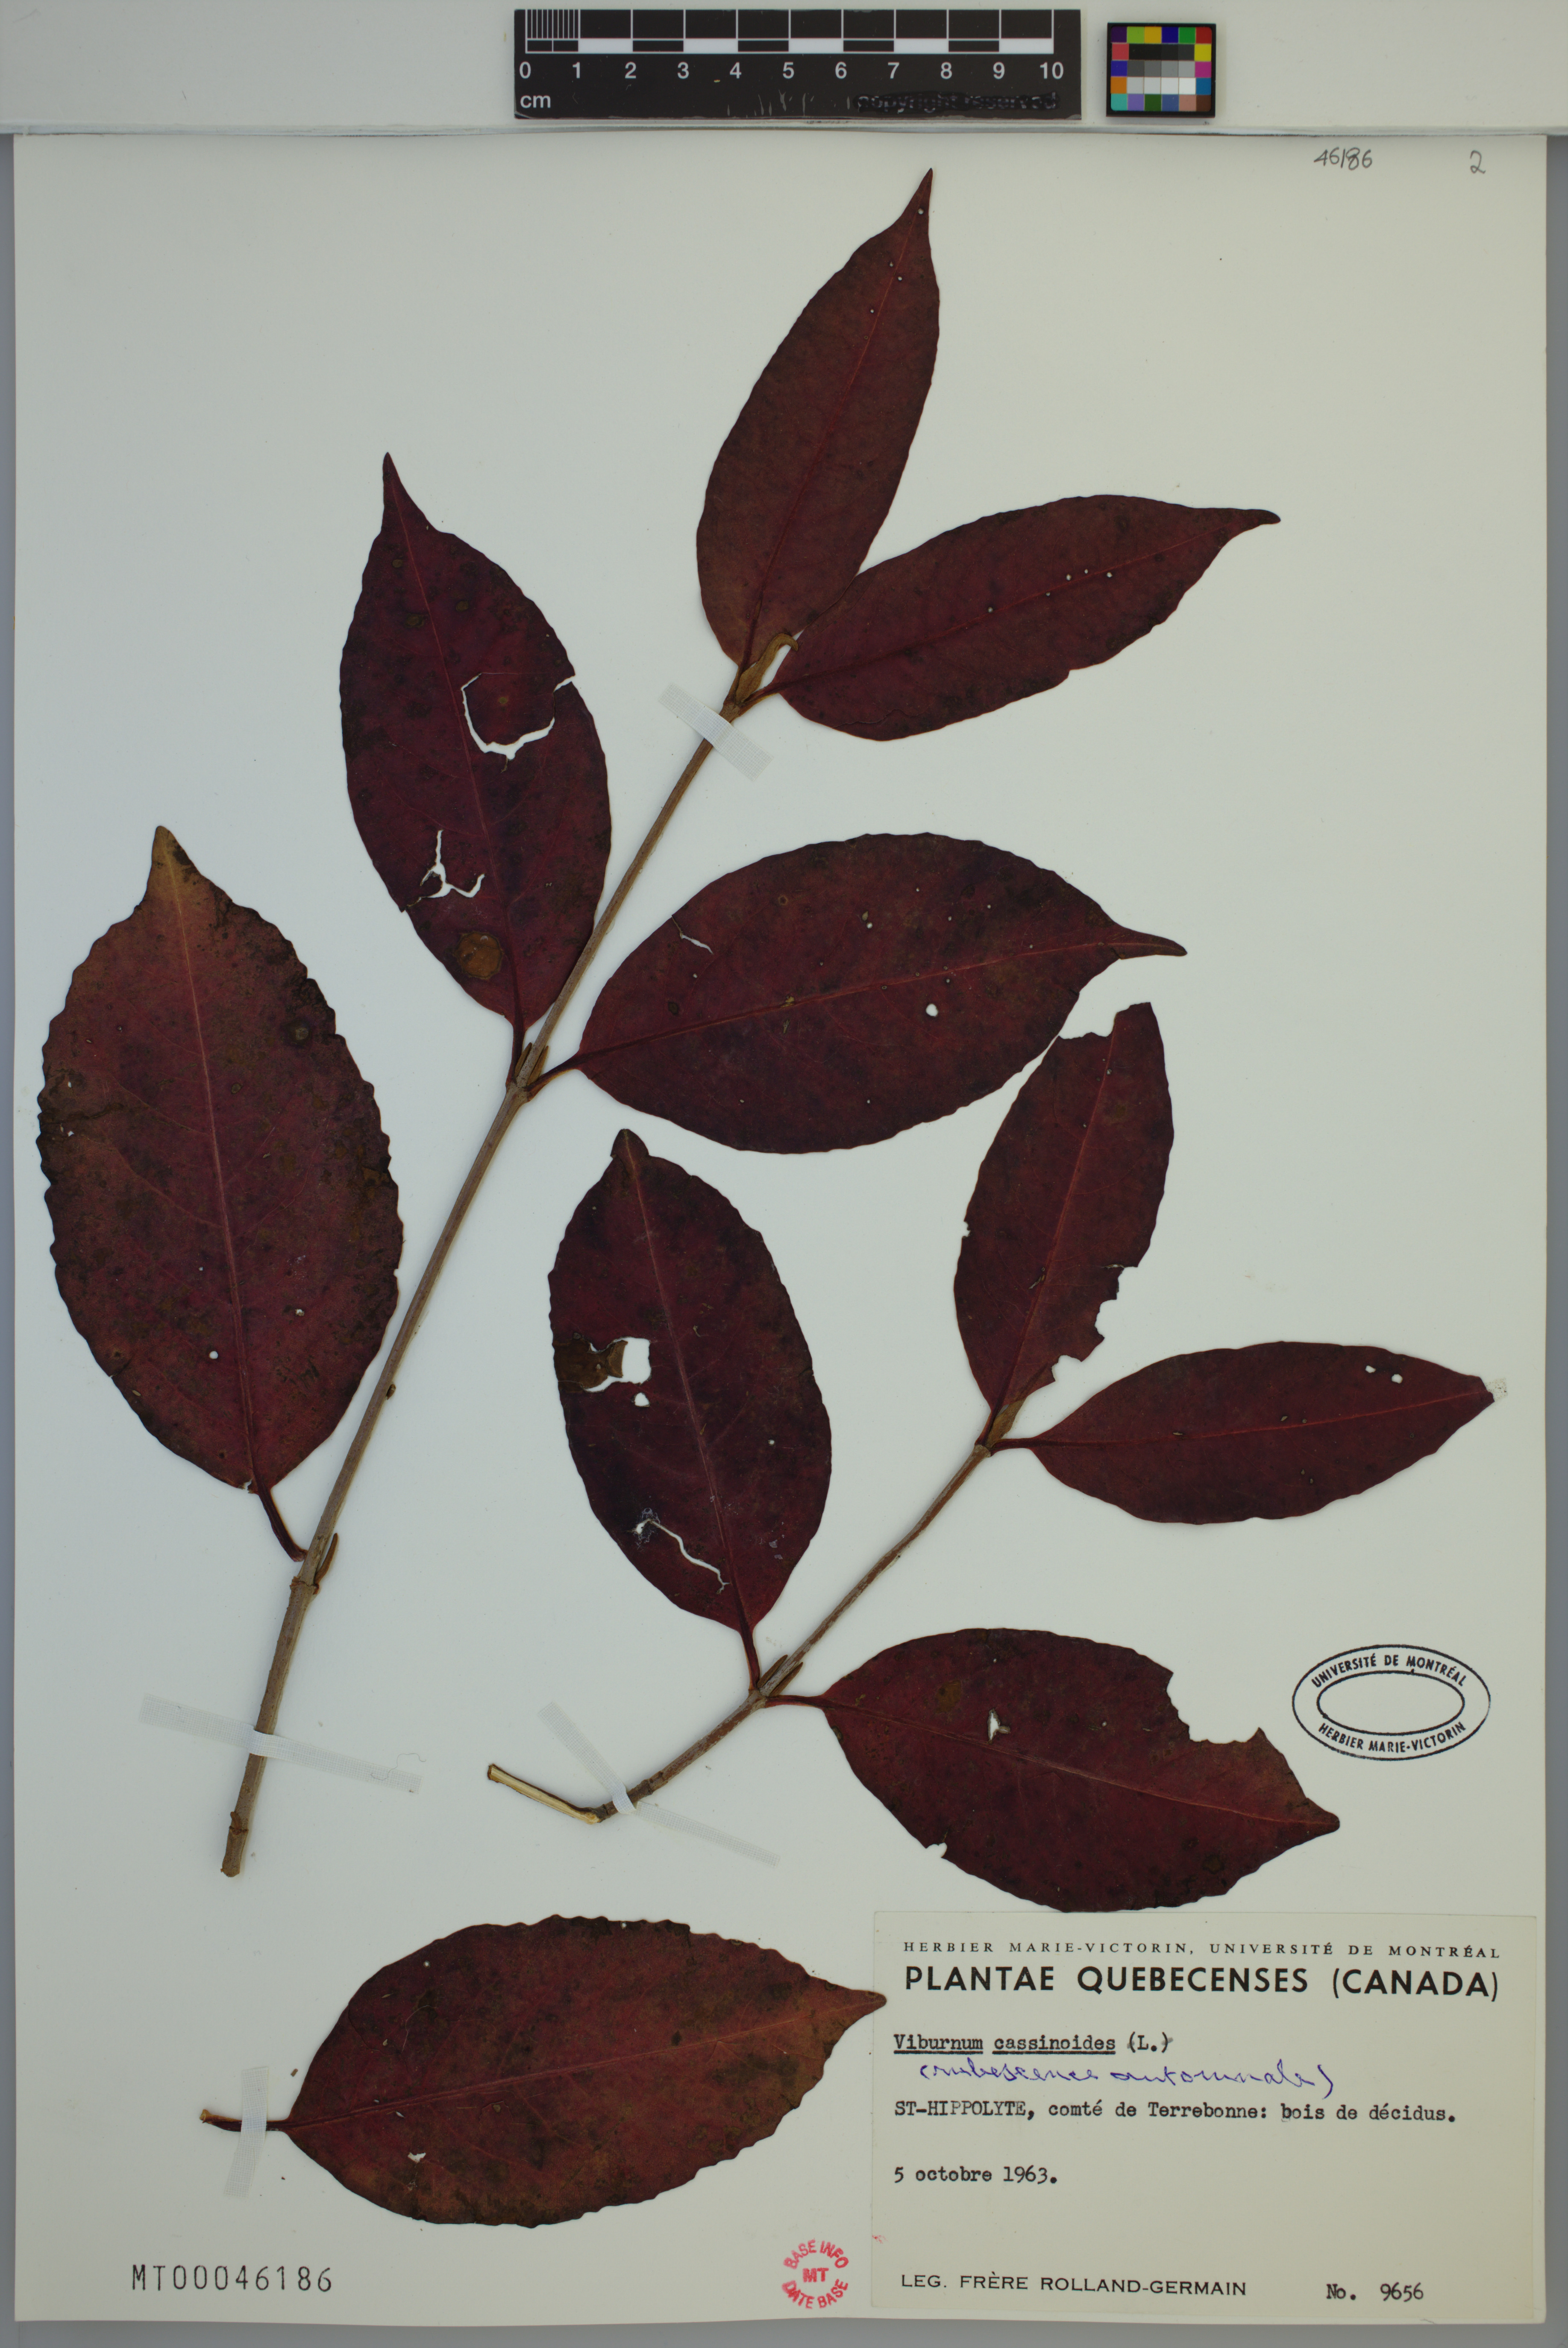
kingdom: Plantae
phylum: Tracheophyta
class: Magnoliopsida
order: Dipsacales
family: Viburnaceae
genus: Viburnum
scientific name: Viburnum cassinoides
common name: Swamp haw
